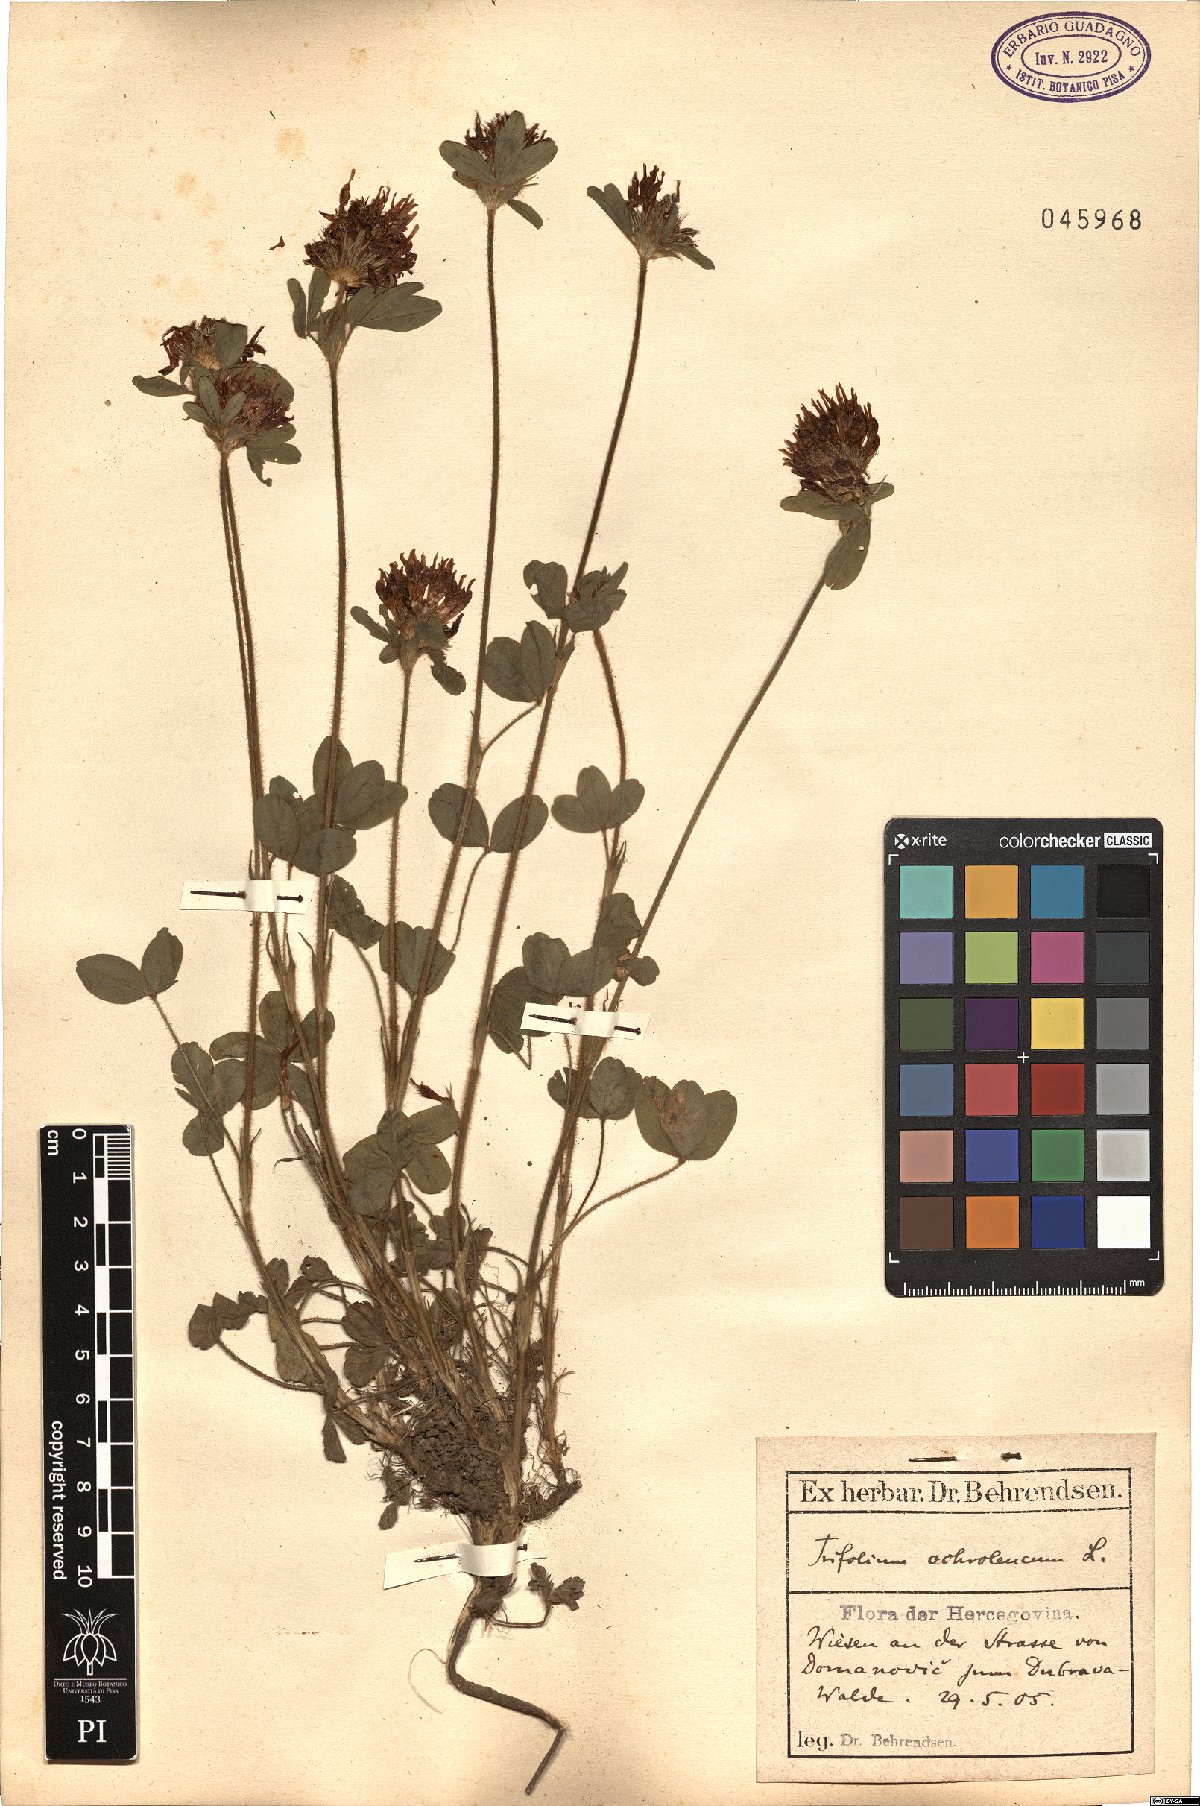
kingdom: Plantae
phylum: Tracheophyta
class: Magnoliopsida
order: Fabales
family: Fabaceae
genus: Trifolium
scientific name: Trifolium ochroleucon
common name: Sulphur clover
